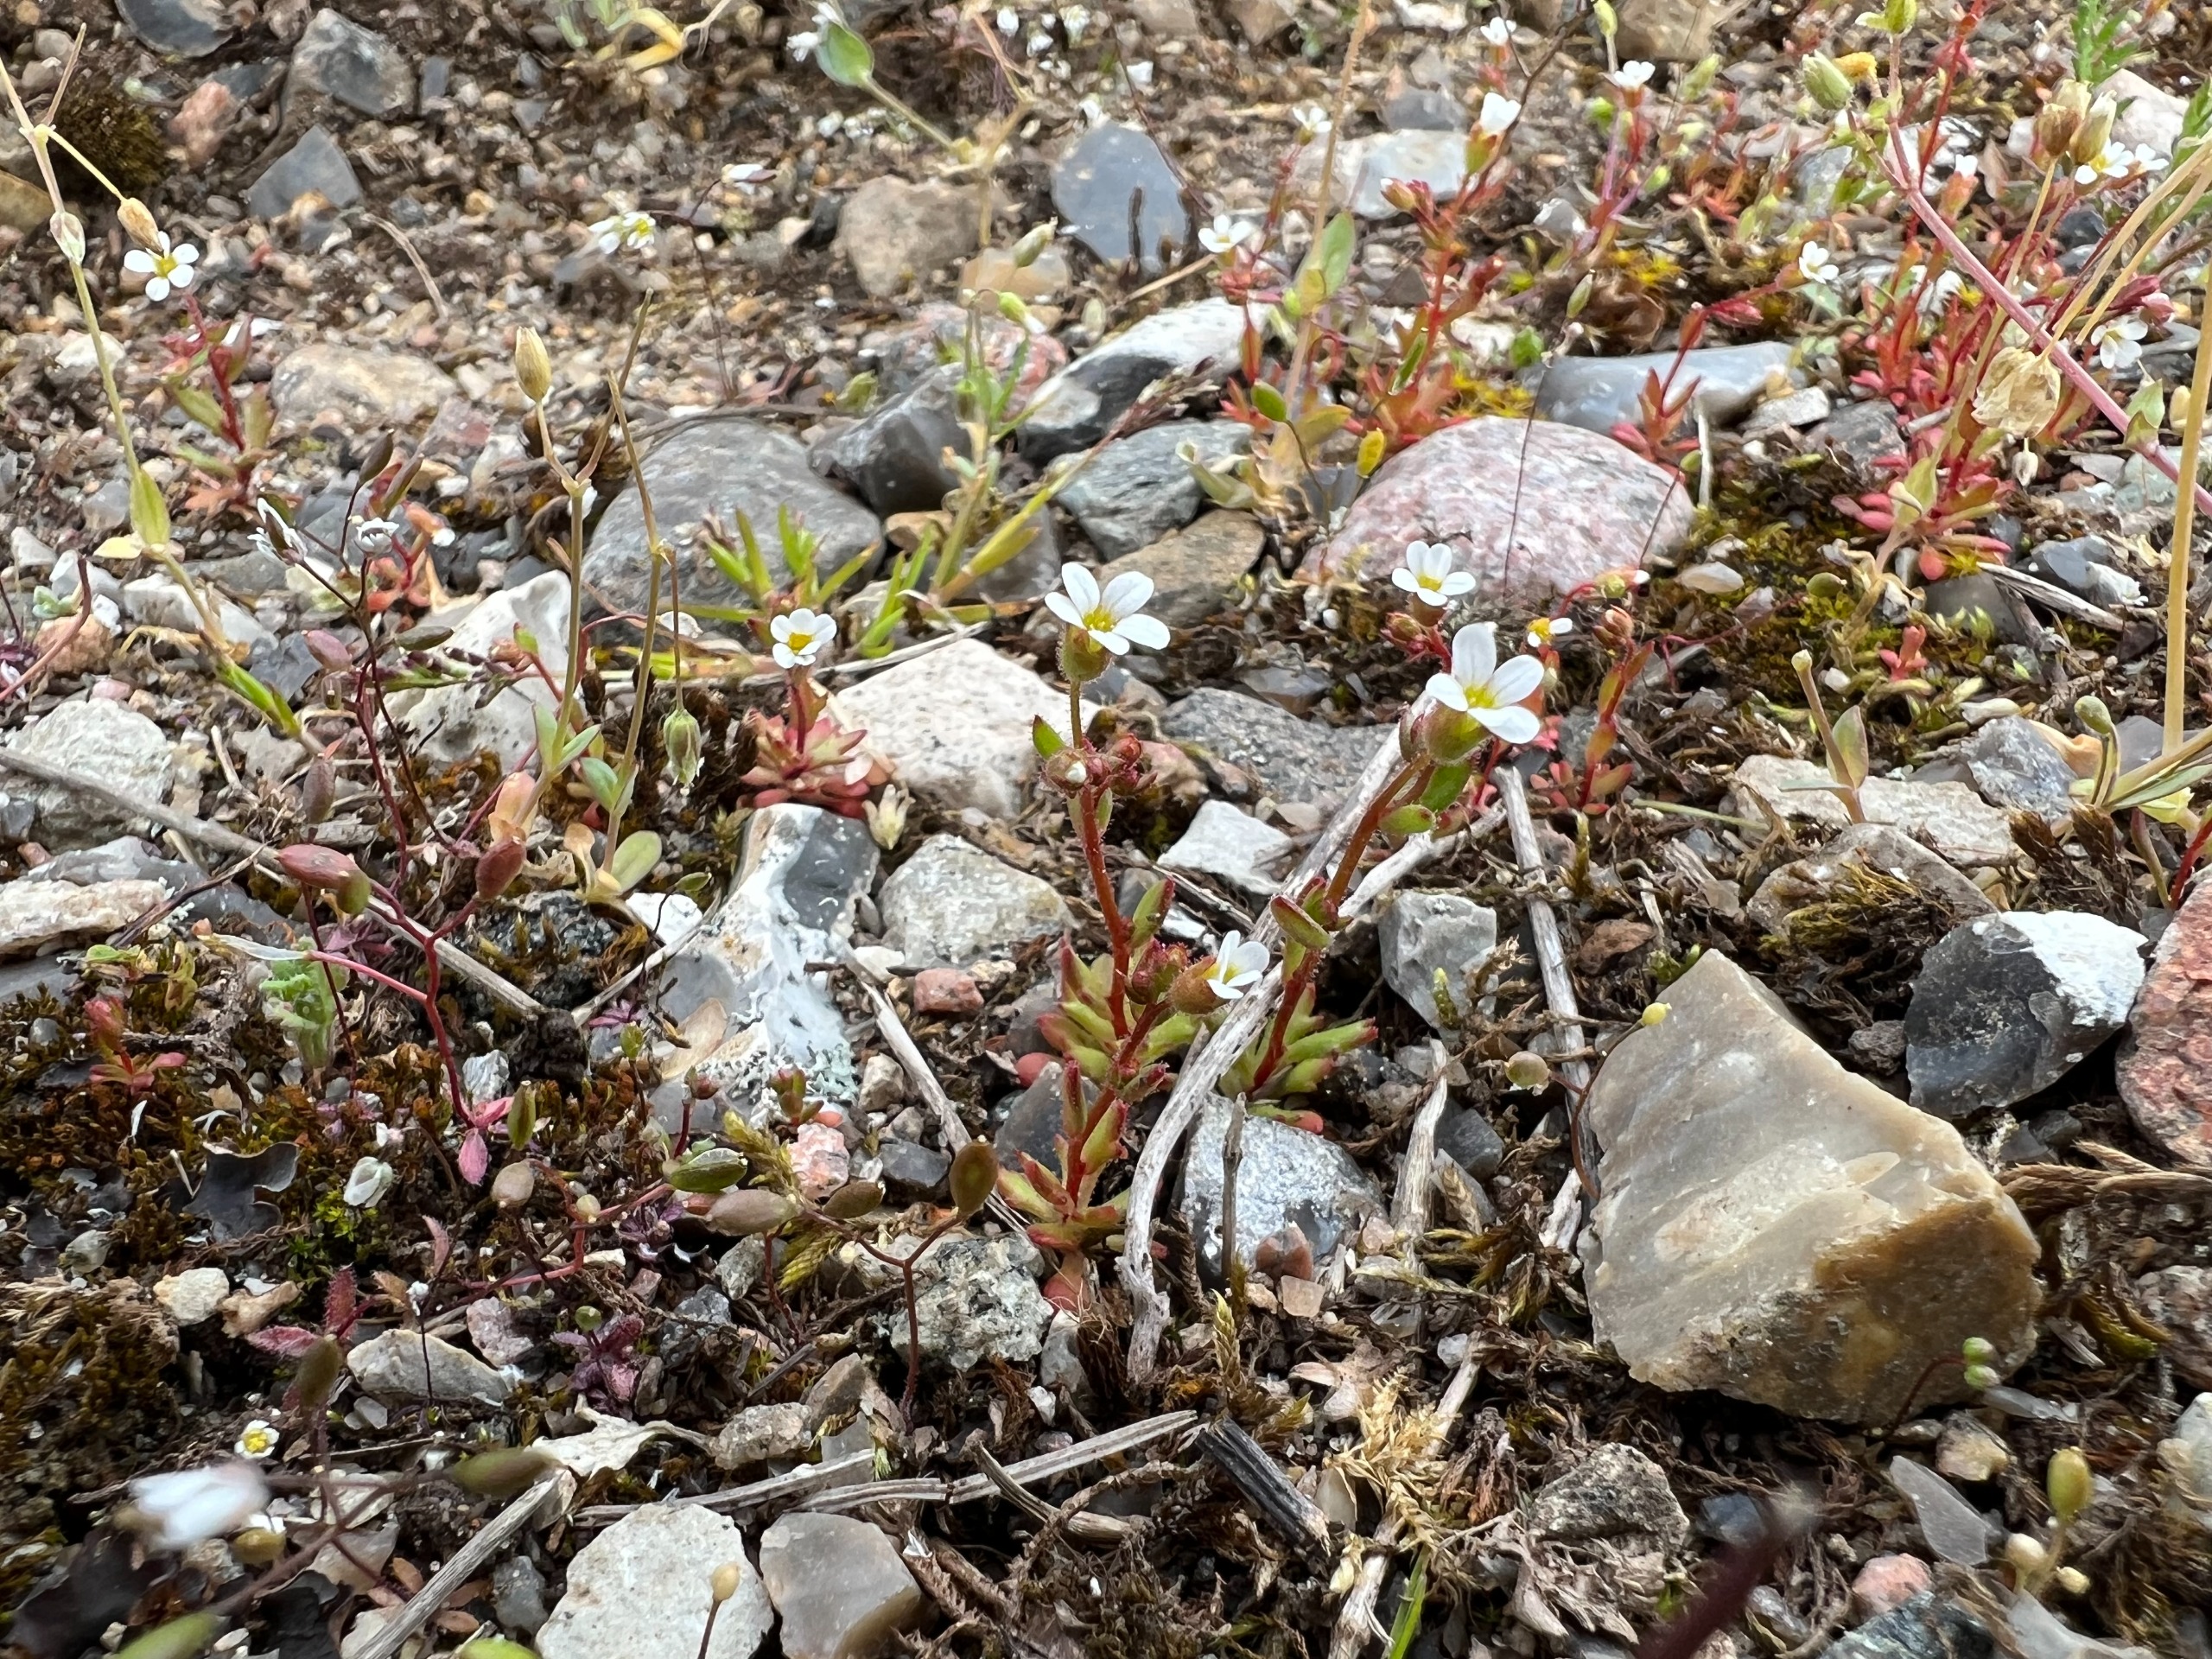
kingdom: Plantae
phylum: Tracheophyta
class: Magnoliopsida
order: Saxifragales
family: Saxifragaceae
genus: Saxifraga
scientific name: Saxifraga tridactylites
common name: Trekløft-stenbræk
